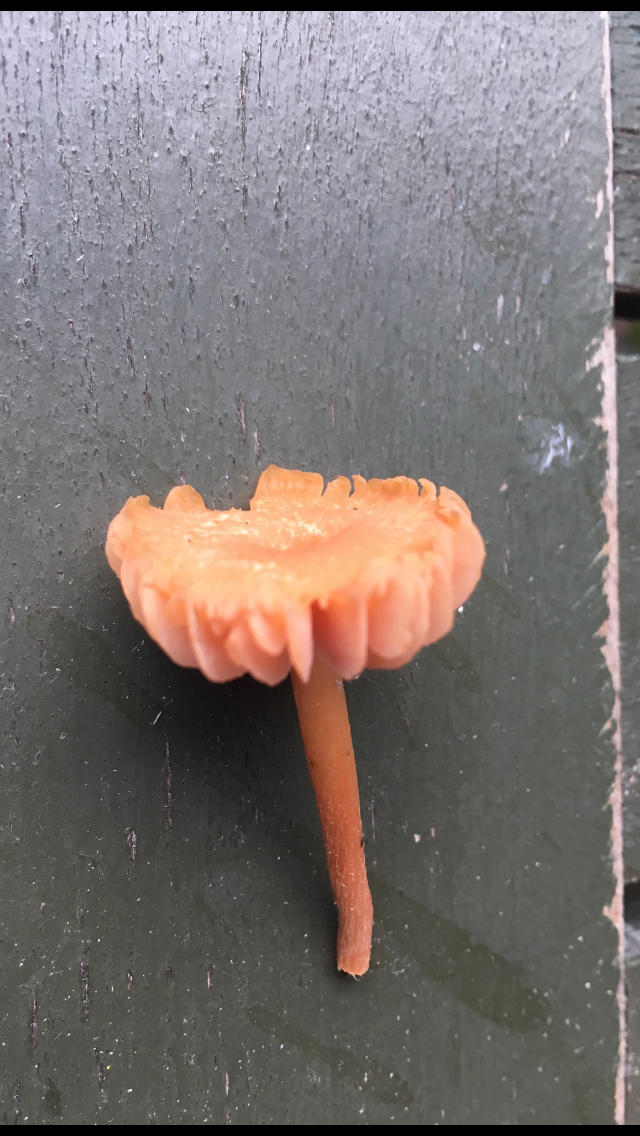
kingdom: Fungi
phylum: Basidiomycota
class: Agaricomycetes
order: Agaricales
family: Hydnangiaceae
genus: Laccaria
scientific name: Laccaria laccata
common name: rød ametysthat
